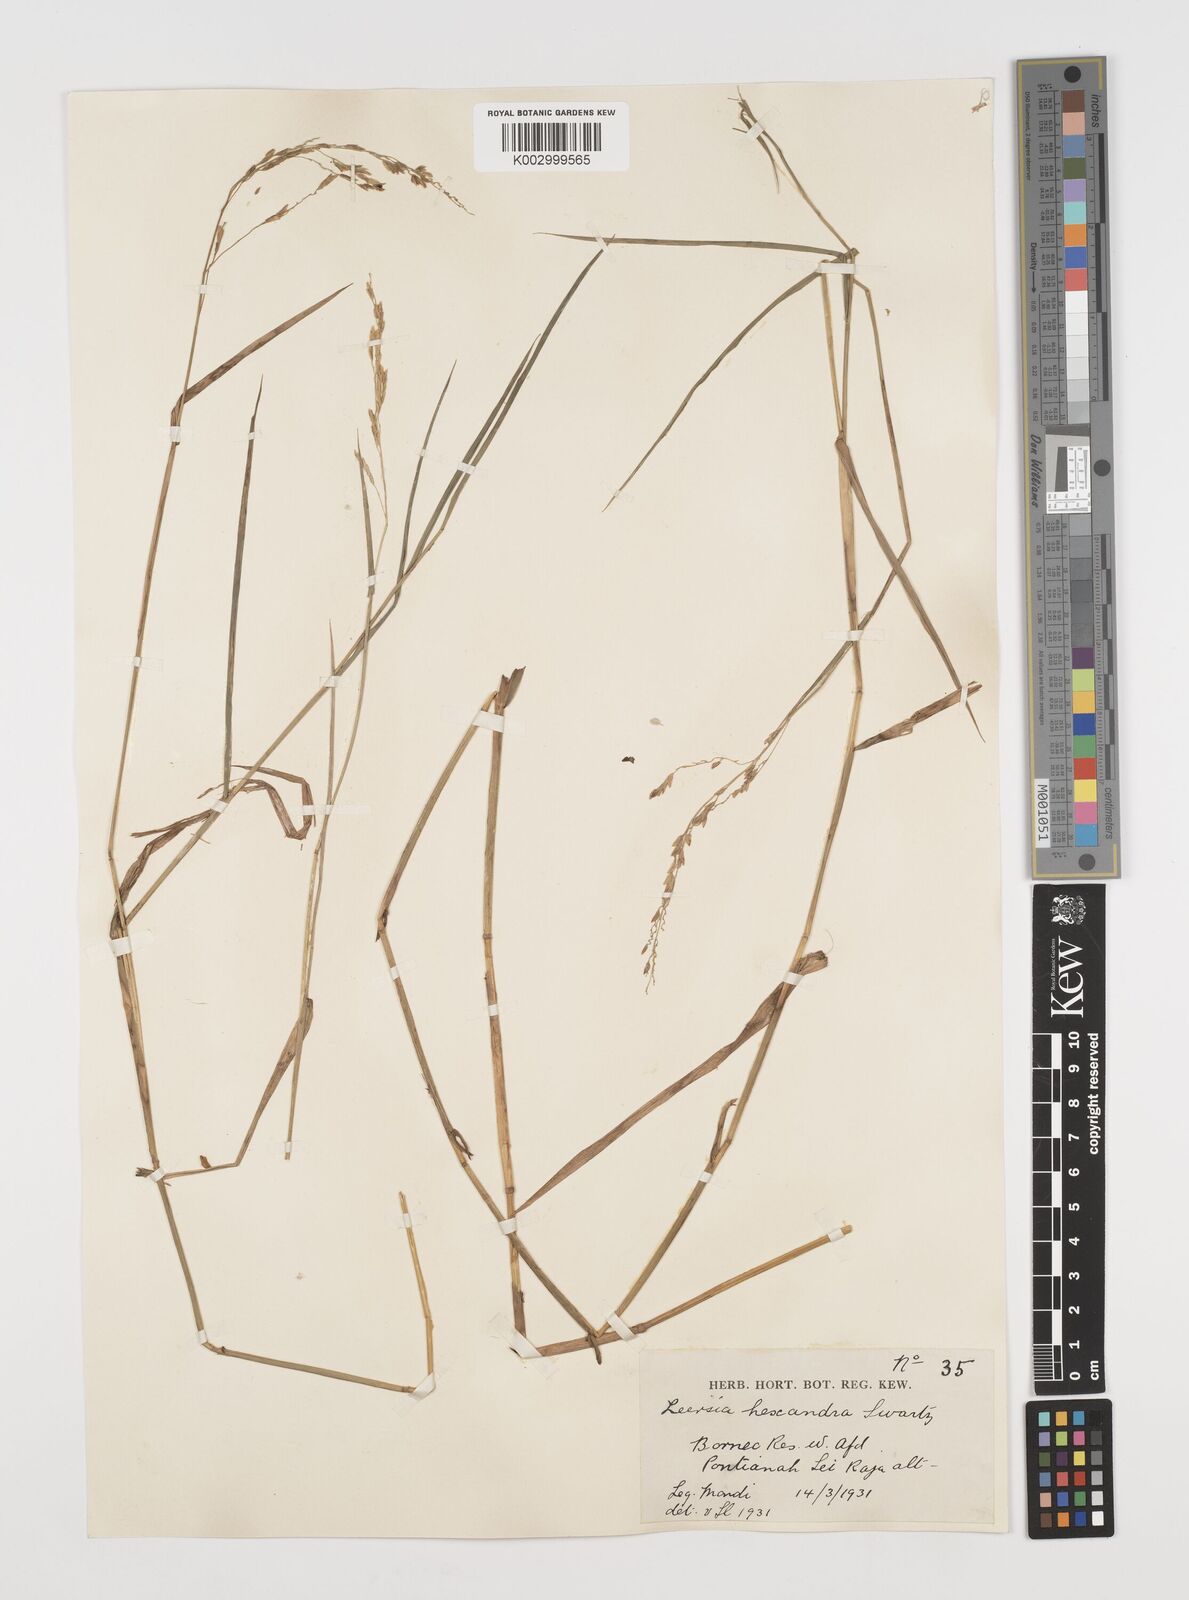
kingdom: Plantae
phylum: Tracheophyta
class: Liliopsida
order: Poales
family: Poaceae
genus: Leersia
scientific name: Leersia hexandra
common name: Southern cut grass
